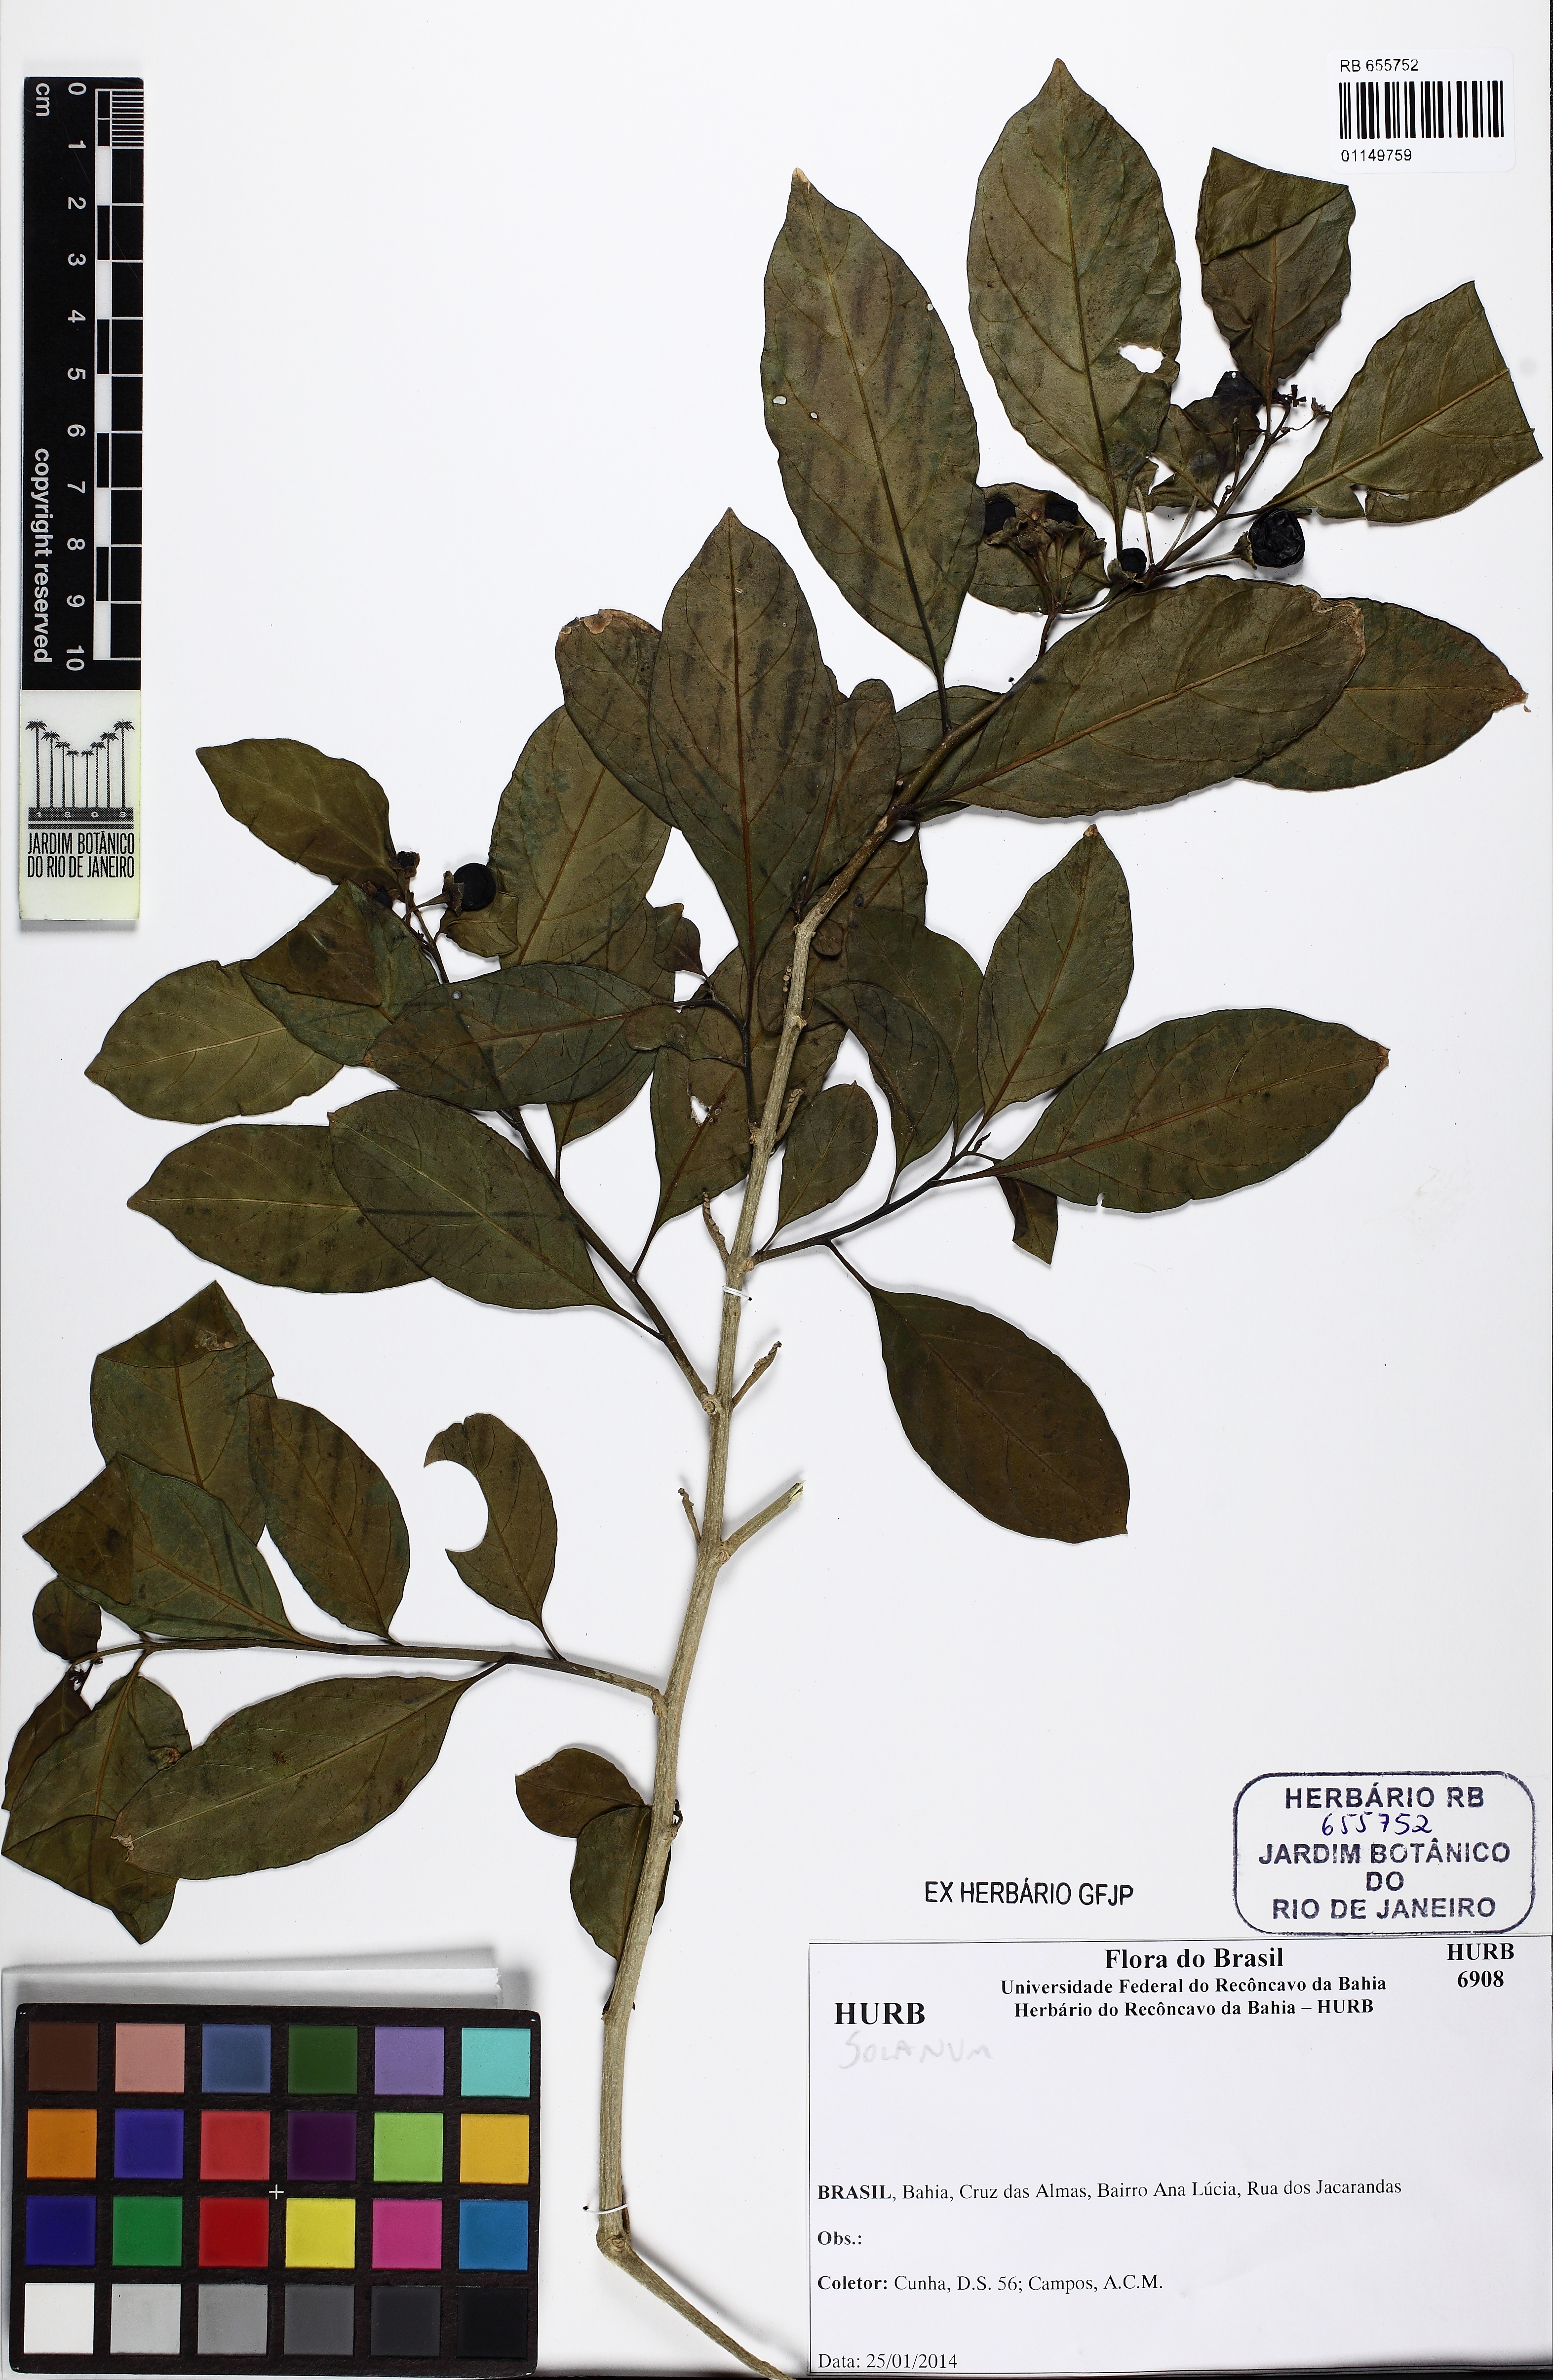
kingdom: Plantae
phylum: Tracheophyta
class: Magnoliopsida
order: Solanales
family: Solanaceae
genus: Solanum
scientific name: Solanum warmingii
